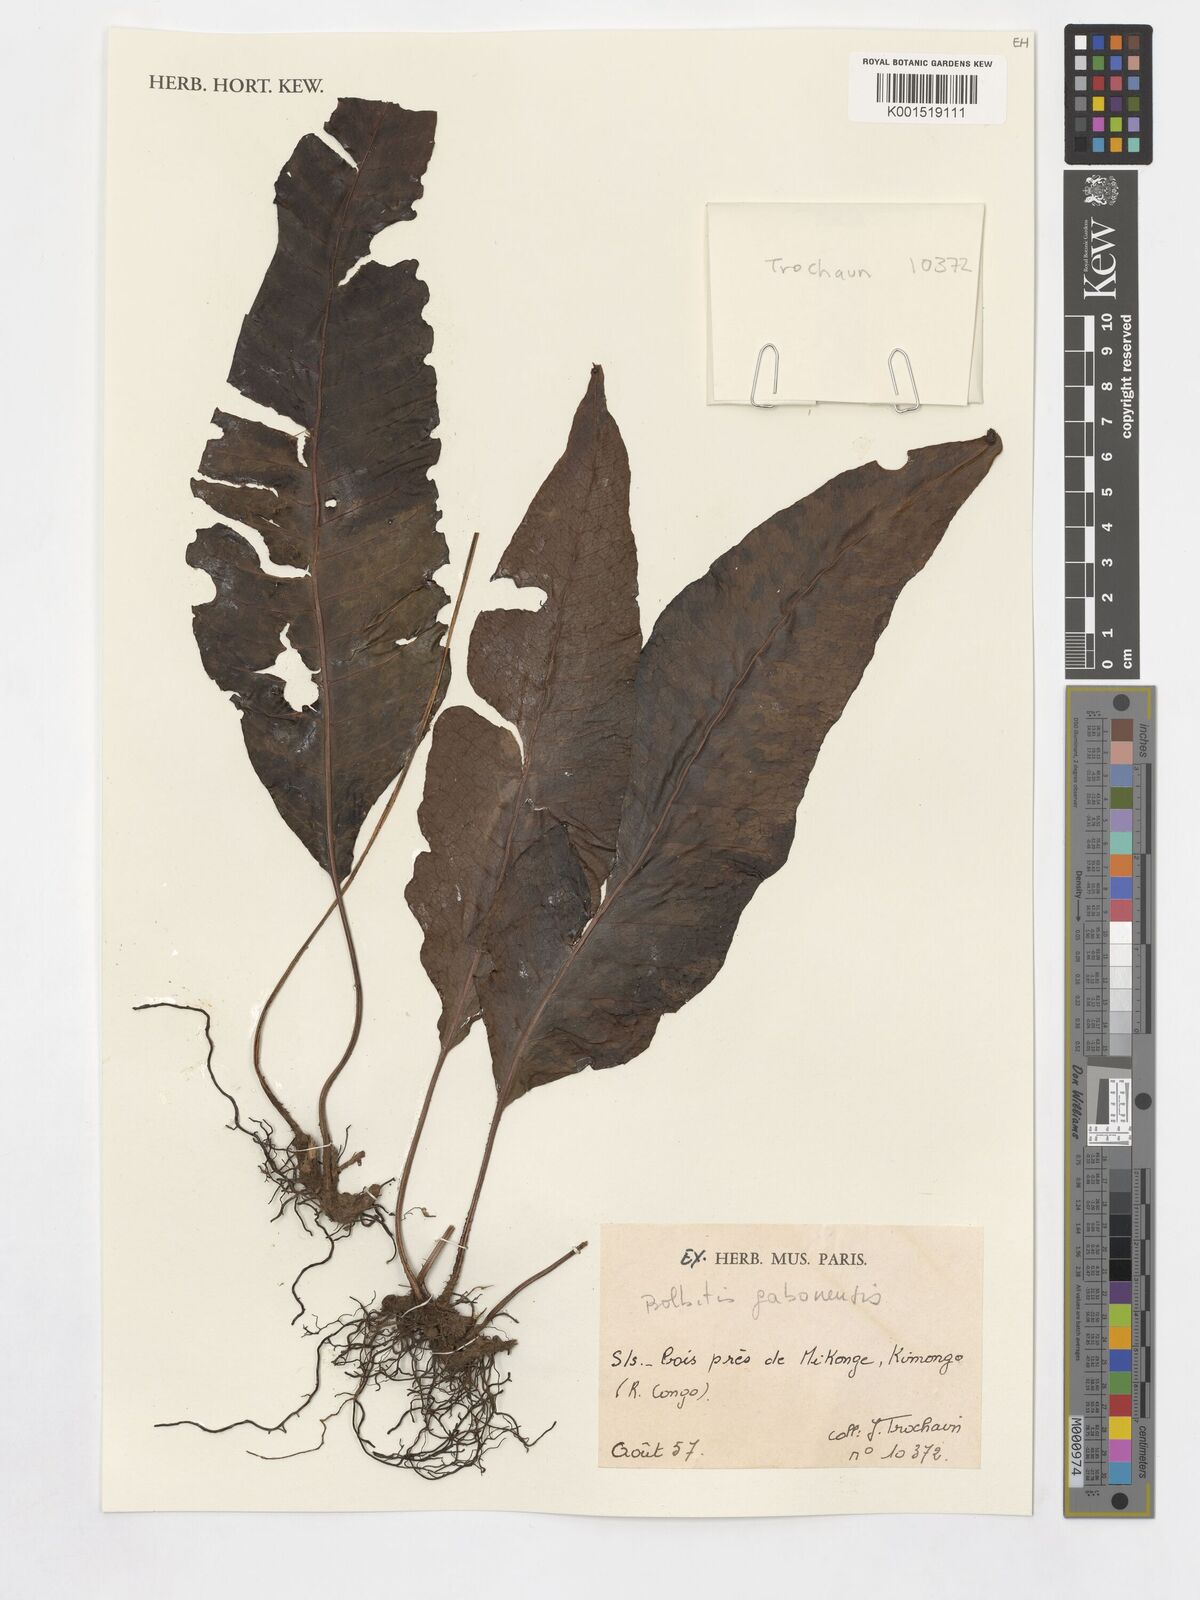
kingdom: Plantae
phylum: Tracheophyta
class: Polypodiopsida
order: Polypodiales
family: Dryopteridaceae
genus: Bolbitis
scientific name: Bolbitis gaboonensis
